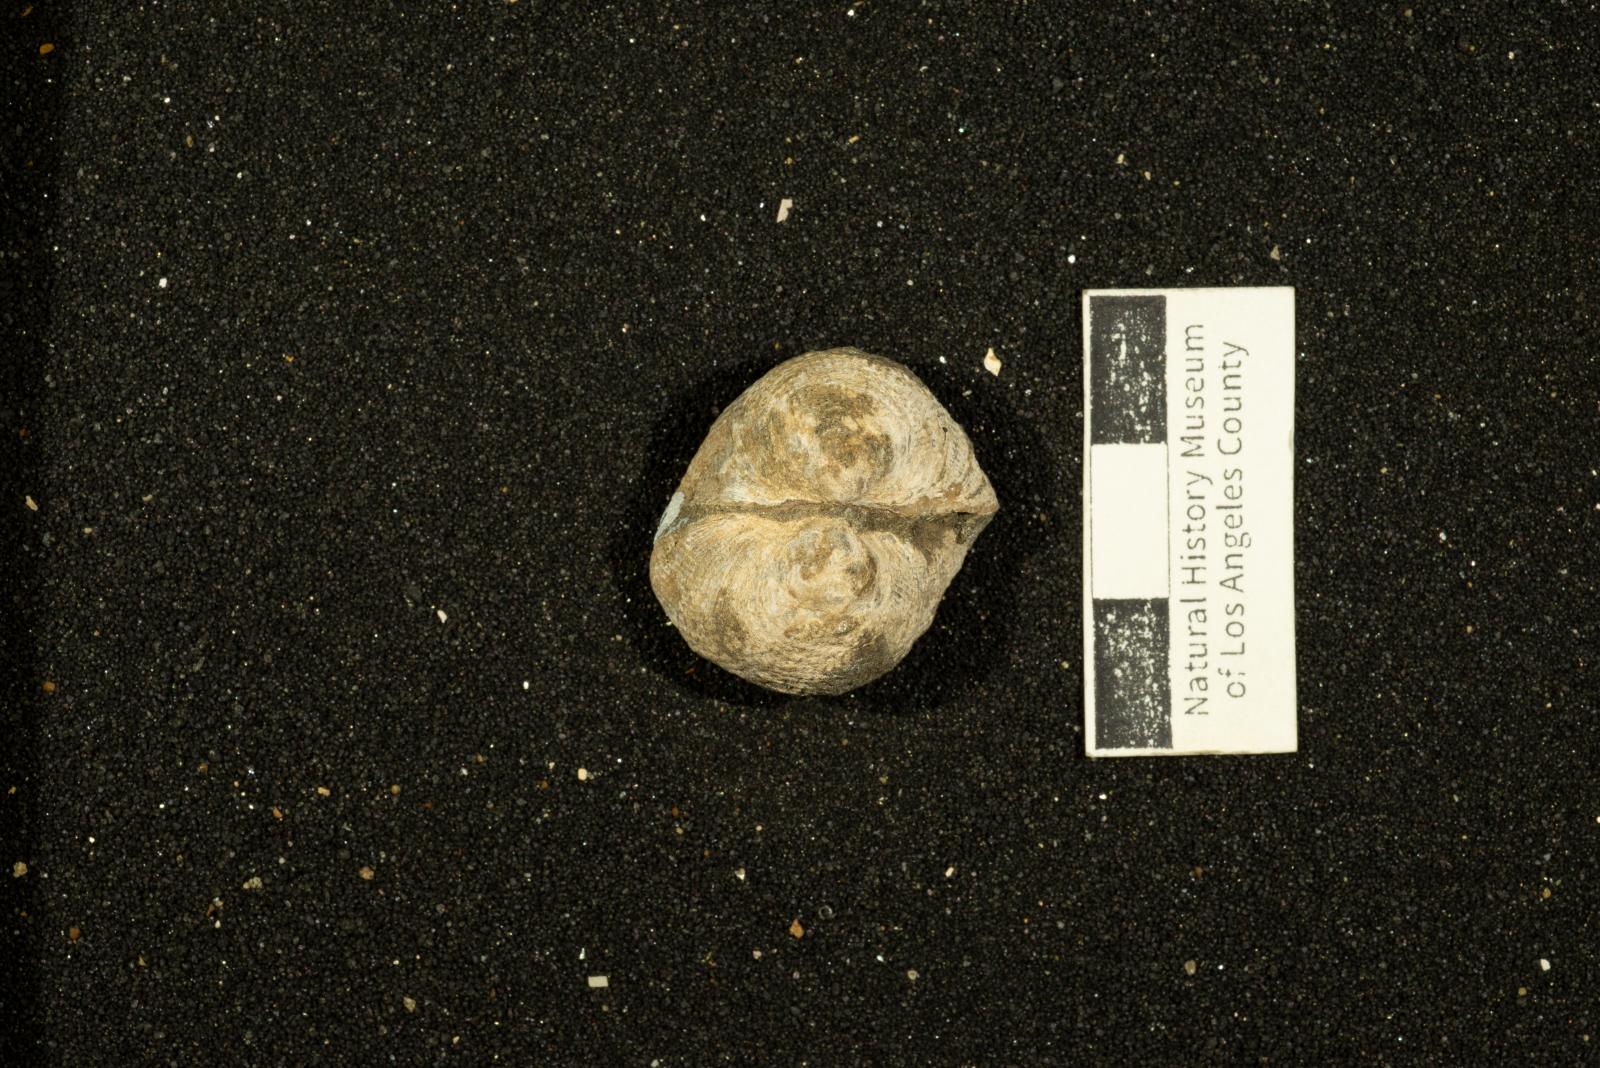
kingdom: Animalia
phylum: Mollusca
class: Bivalvia
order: Arcida
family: Glycymerididae
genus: Glycymerita
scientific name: Glycymerita Axinaea veatchii
